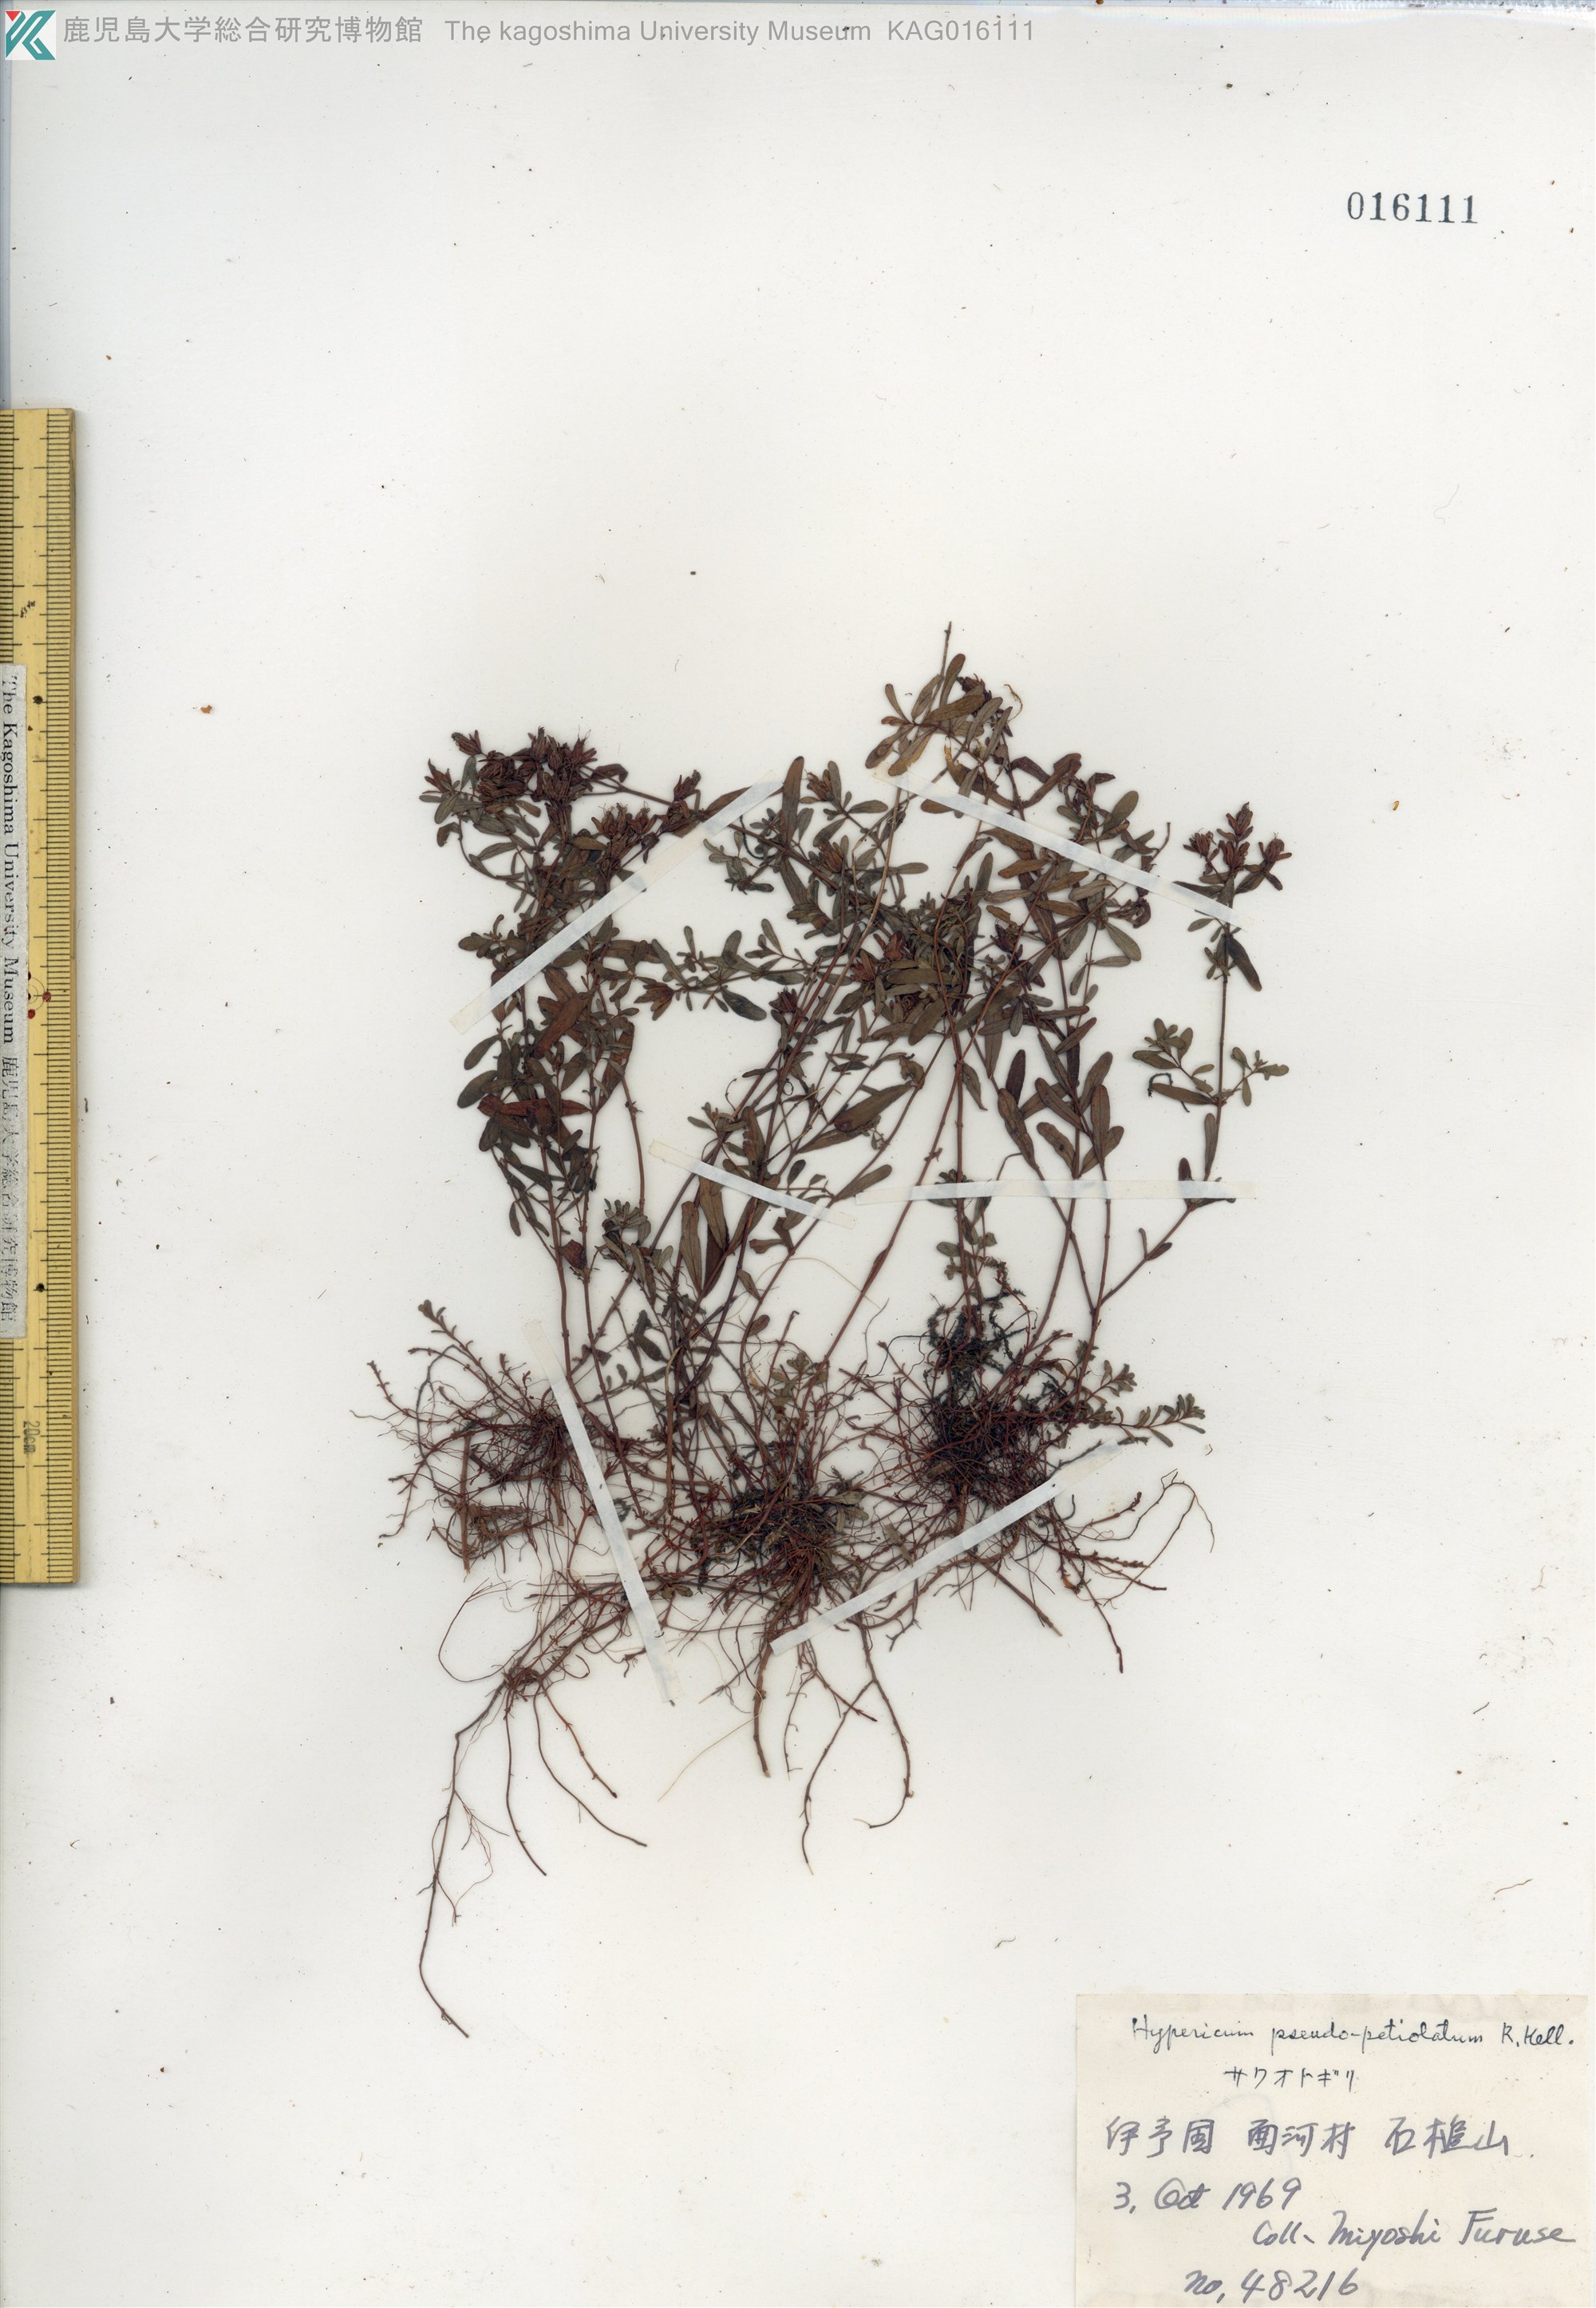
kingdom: Plantae
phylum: Tracheophyta
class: Magnoliopsida
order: Malpighiales
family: Hypericaceae
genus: Hypericum
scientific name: Hypericum pseudopetiolatum
